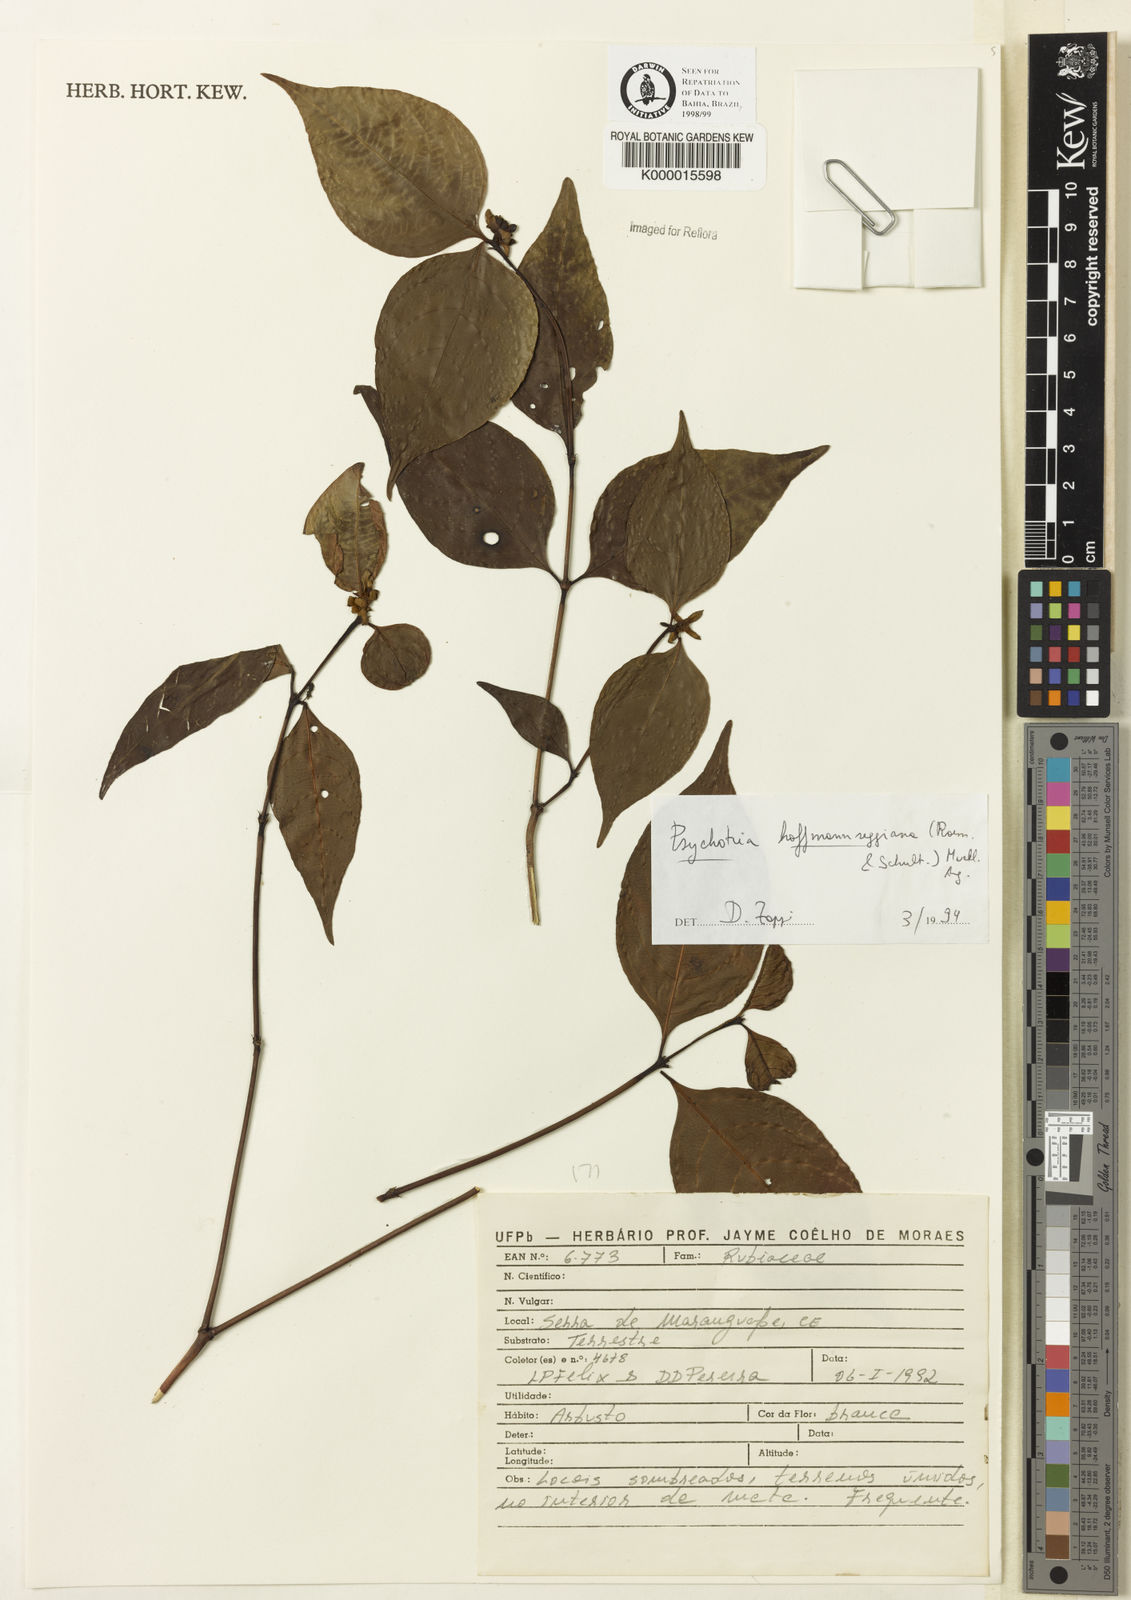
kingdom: Plantae
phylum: Tracheophyta
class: Magnoliopsida
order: Gentianales
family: Rubiaceae
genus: Psychotria
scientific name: Psychotria
